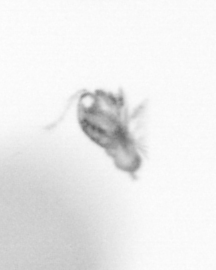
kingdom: Animalia
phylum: Arthropoda
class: Copepoda
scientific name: Copepoda
